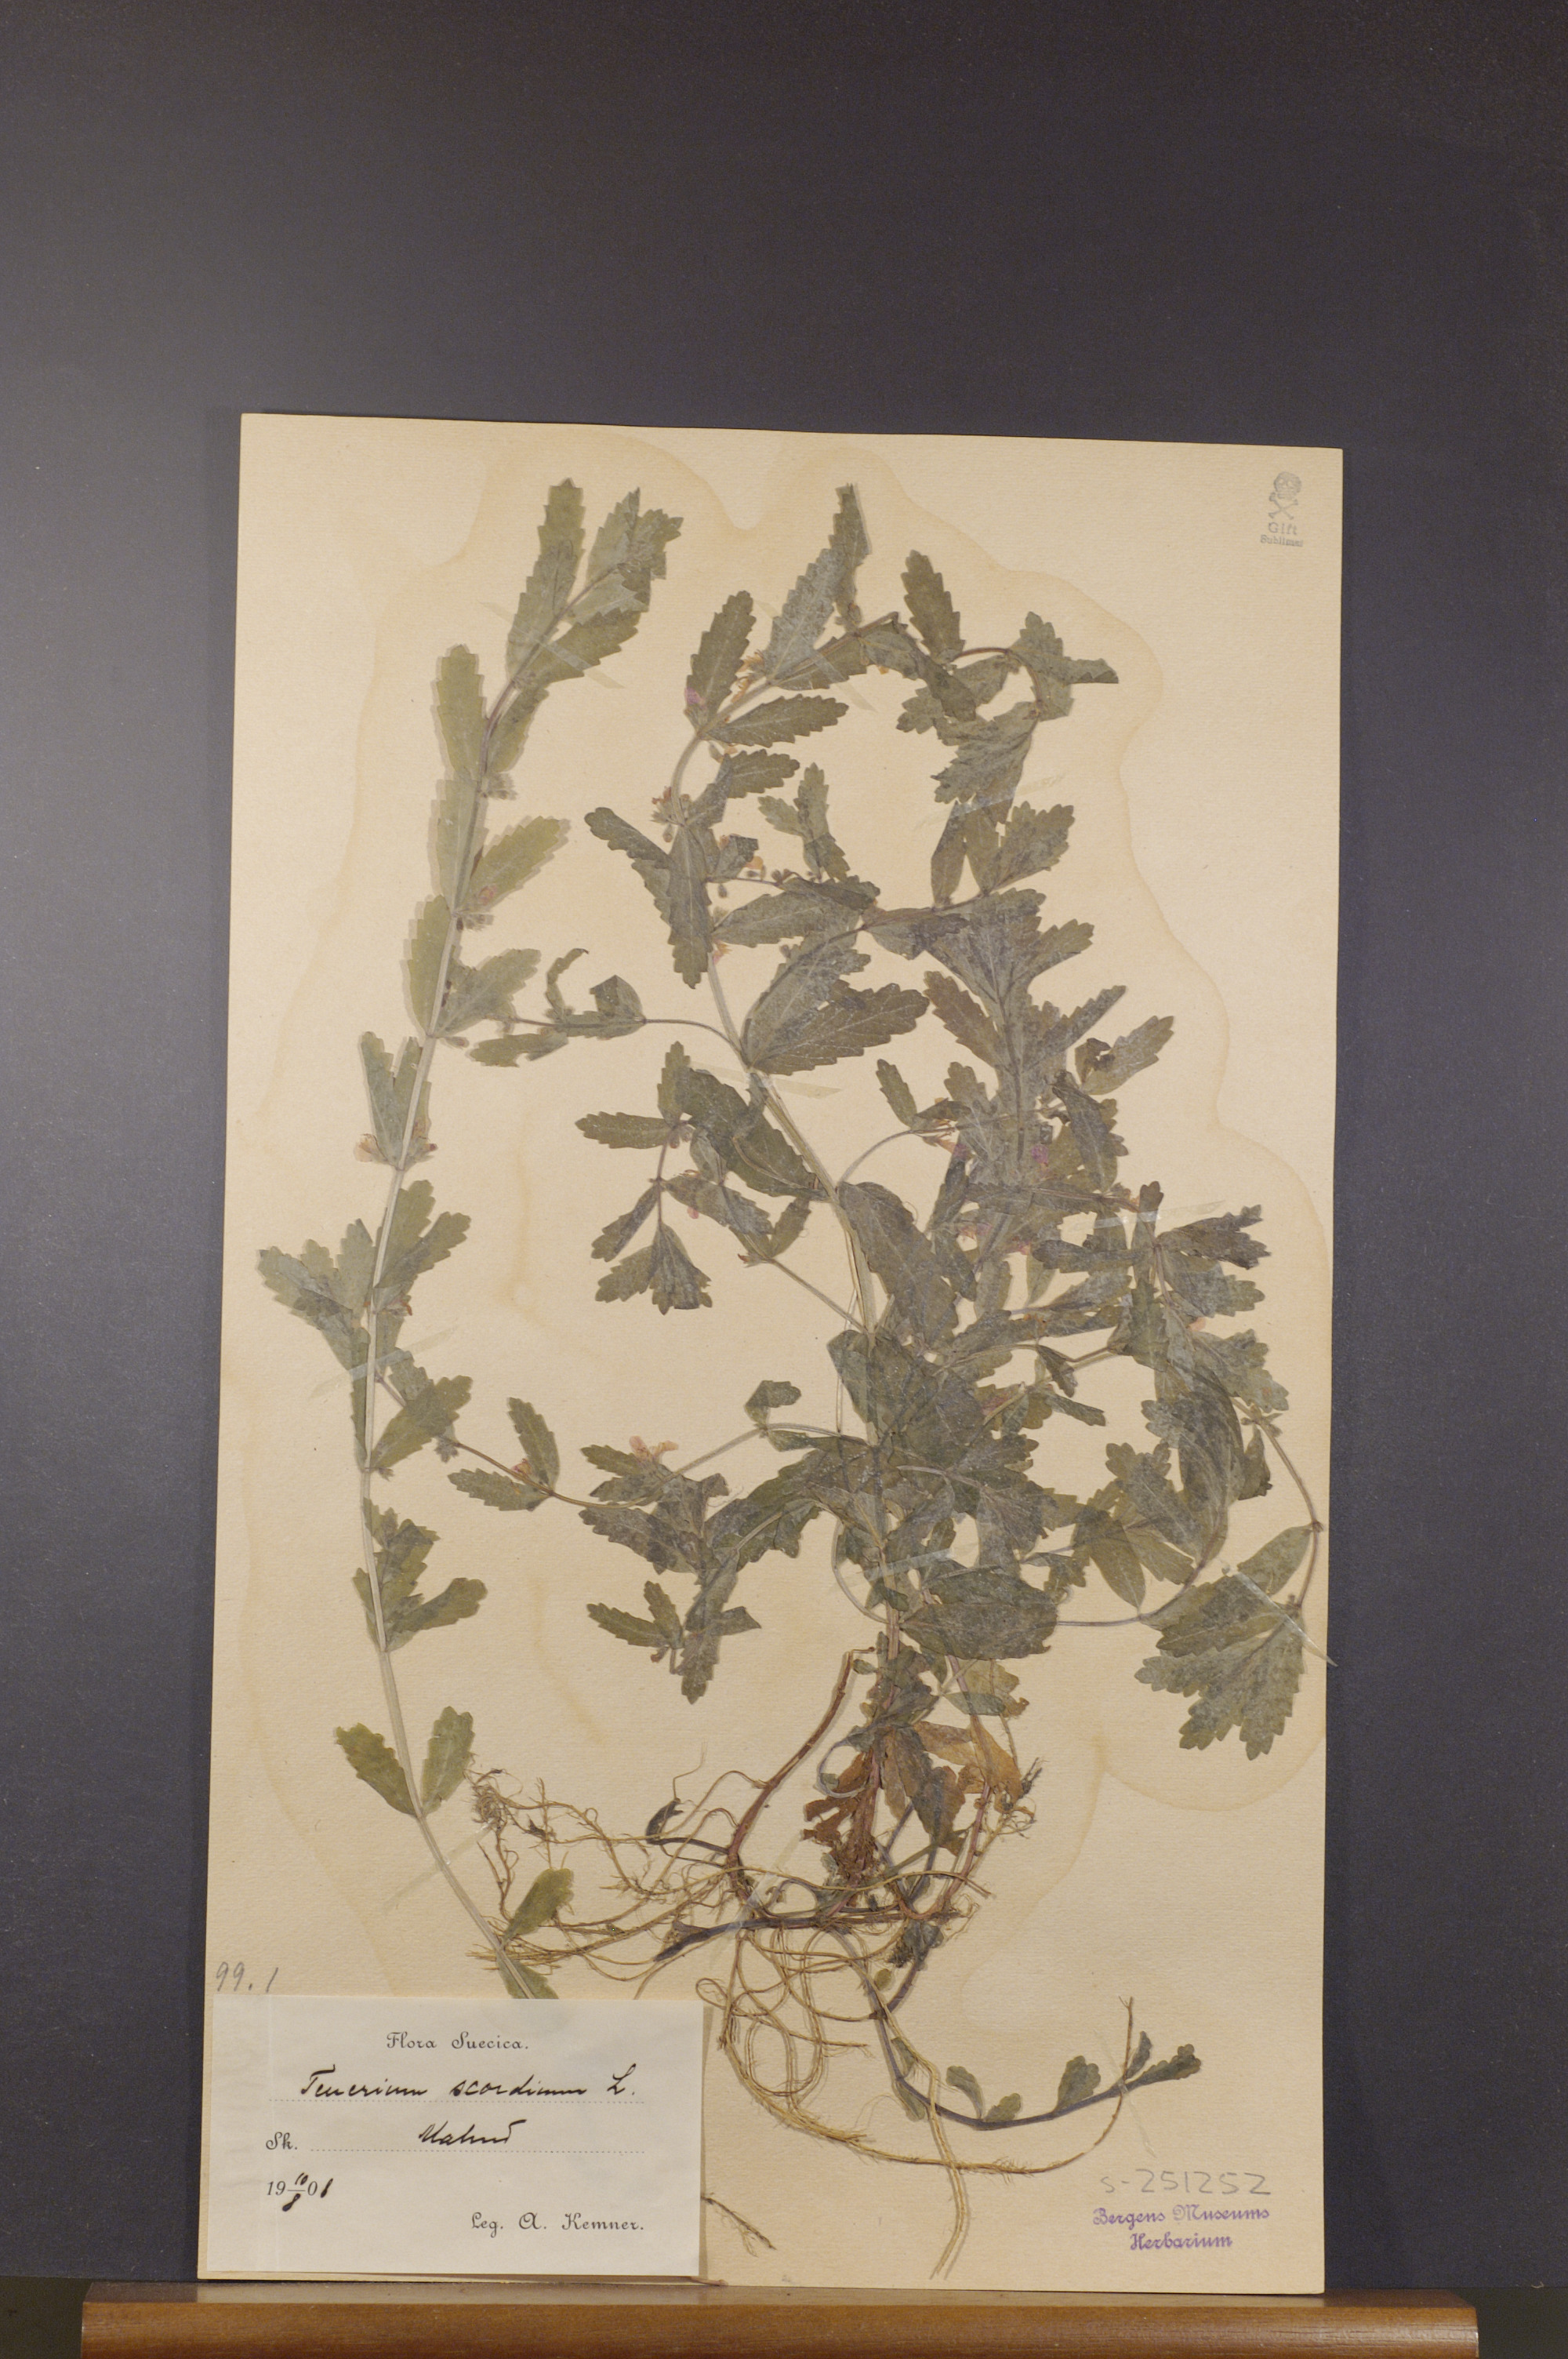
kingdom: Plantae
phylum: Tracheophyta
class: Magnoliopsida
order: Lamiales
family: Lamiaceae
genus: Teucrium
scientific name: Teucrium scordium
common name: Water germander
